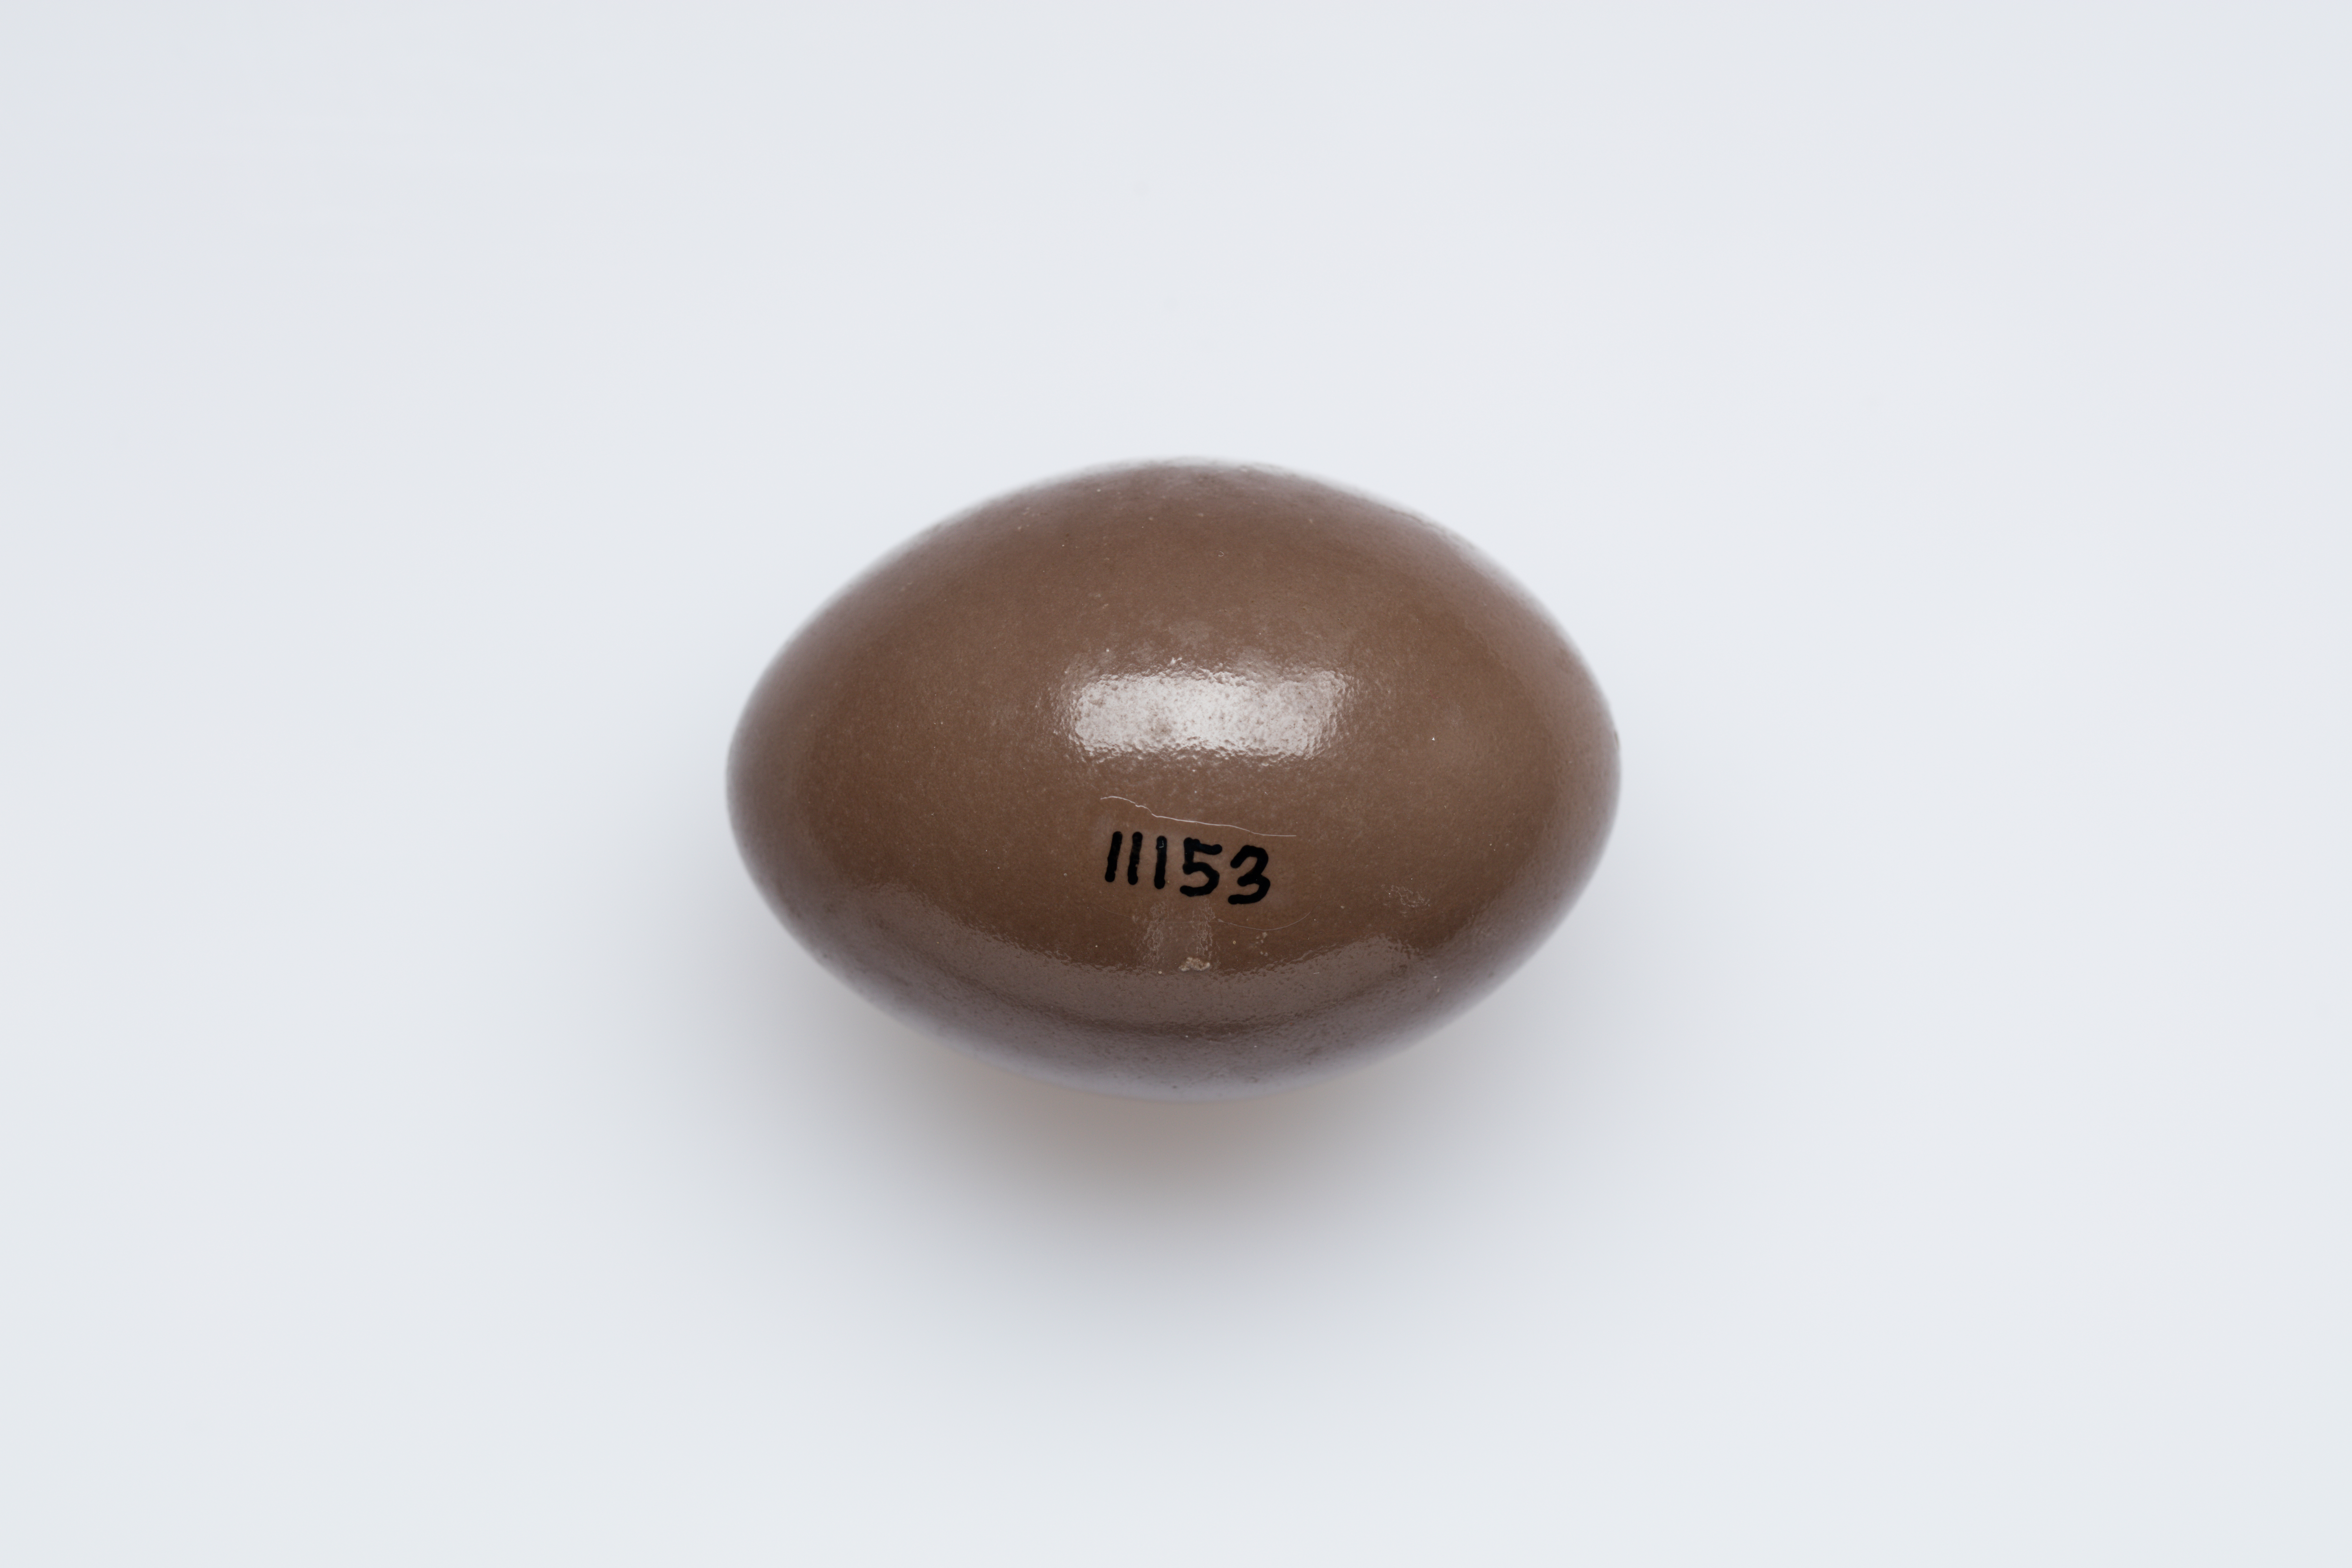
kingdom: Animalia
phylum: Chordata
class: Aves
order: Tinamiformes
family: Tinamidae
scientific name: Tinamidae
